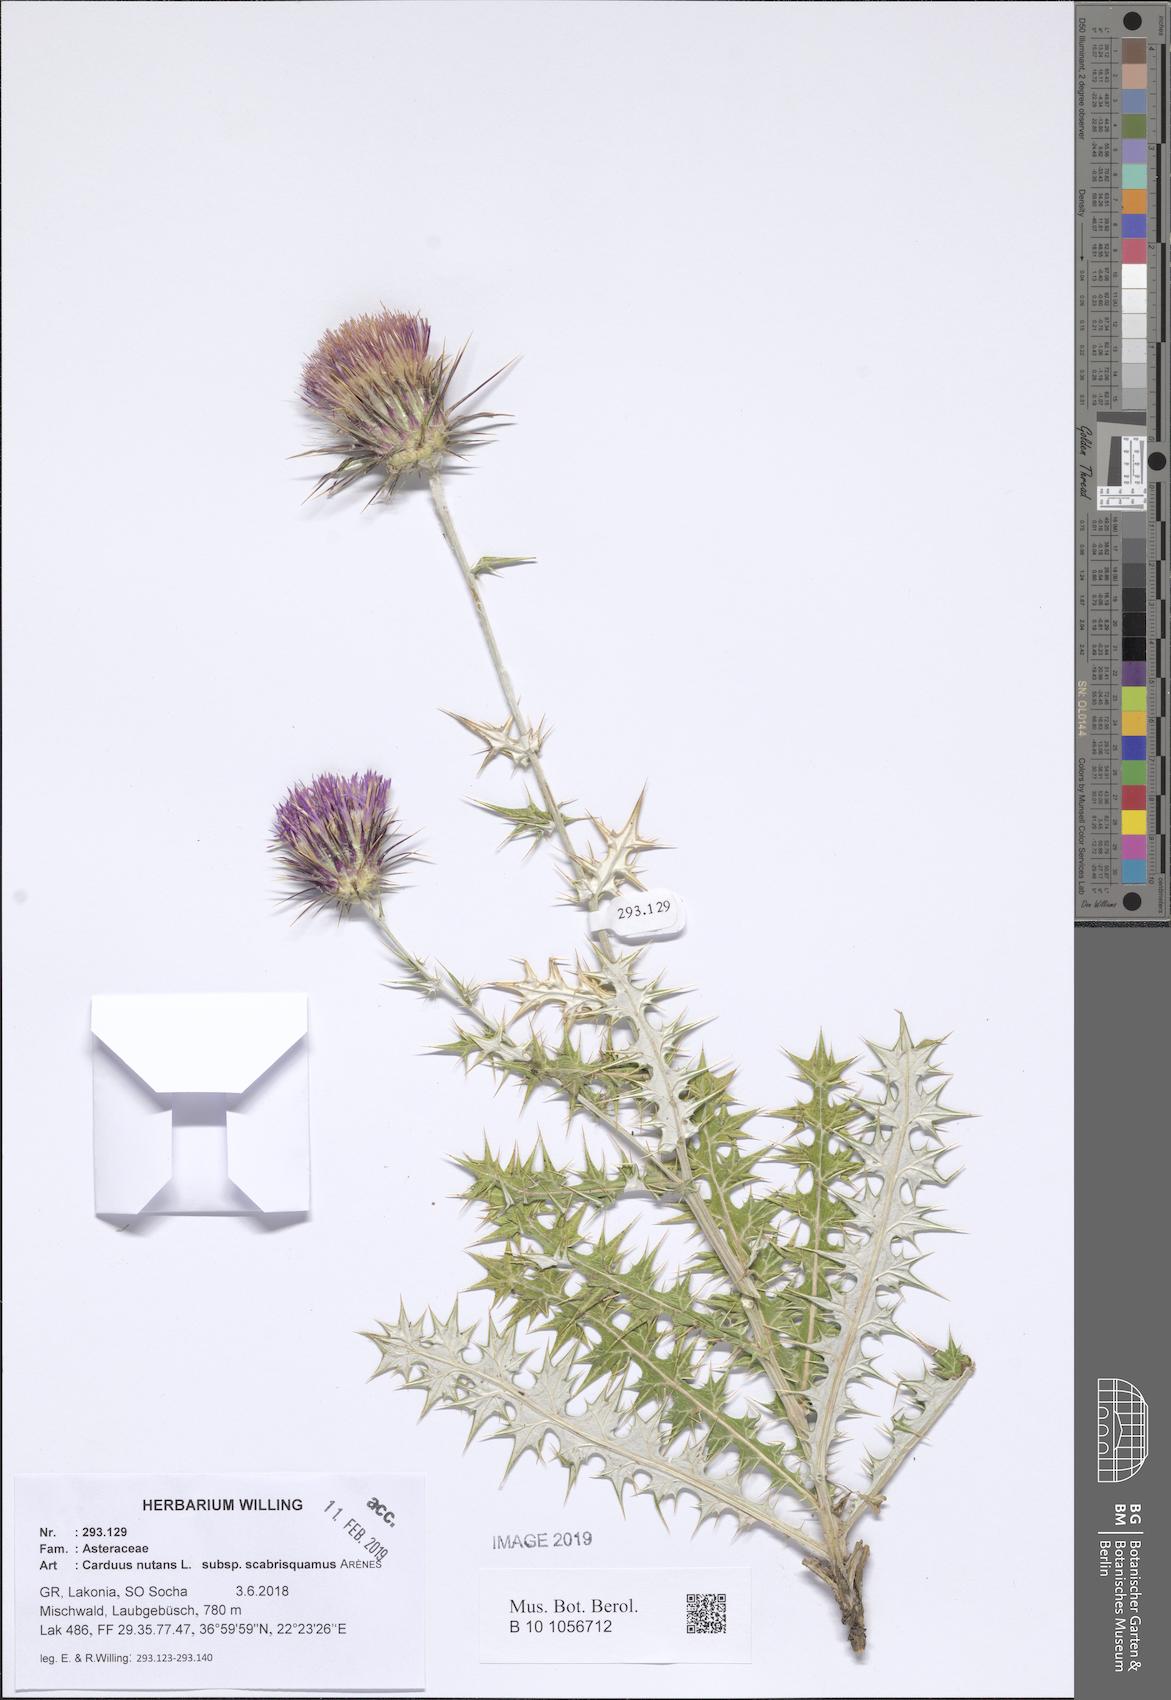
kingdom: Plantae
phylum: Tracheophyta
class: Magnoliopsida
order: Asterales
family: Asteraceae
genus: Carduus
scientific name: Carduus macrocephalus
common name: Giant thistle
